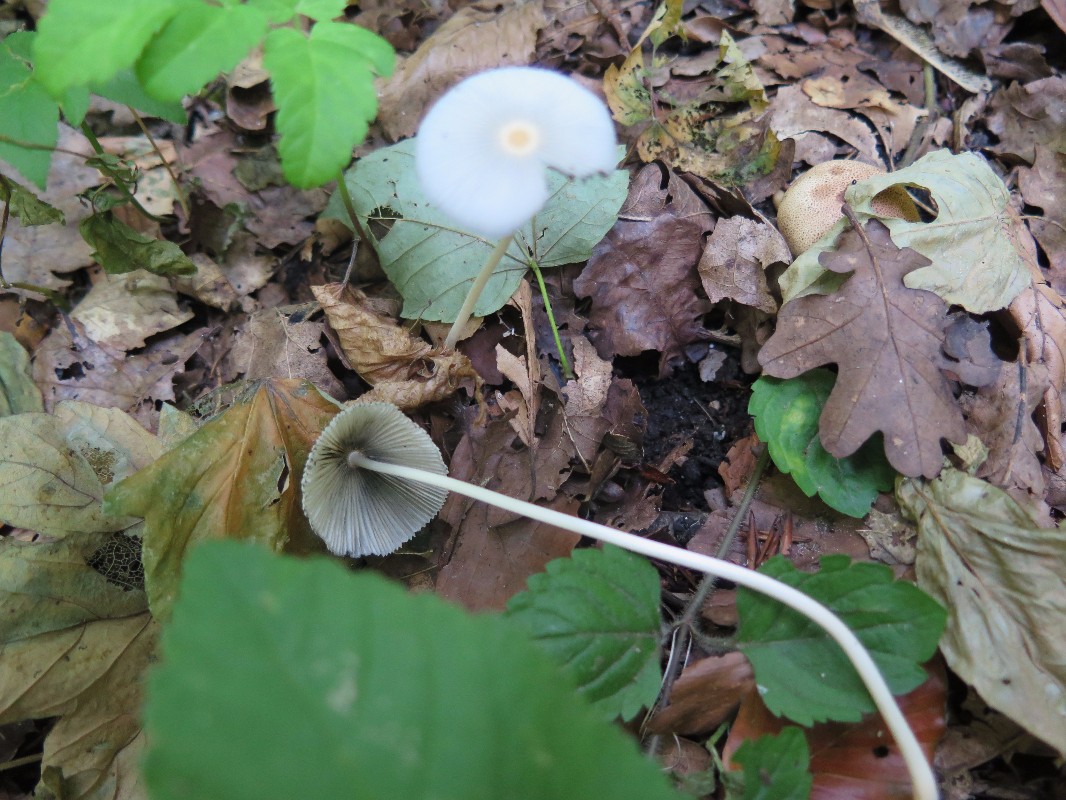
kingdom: Fungi
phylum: Basidiomycota
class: Agaricomycetes
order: Agaricales
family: Psathyrellaceae
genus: Parasola
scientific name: Parasola kuehneri
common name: skygge-hjulhat
